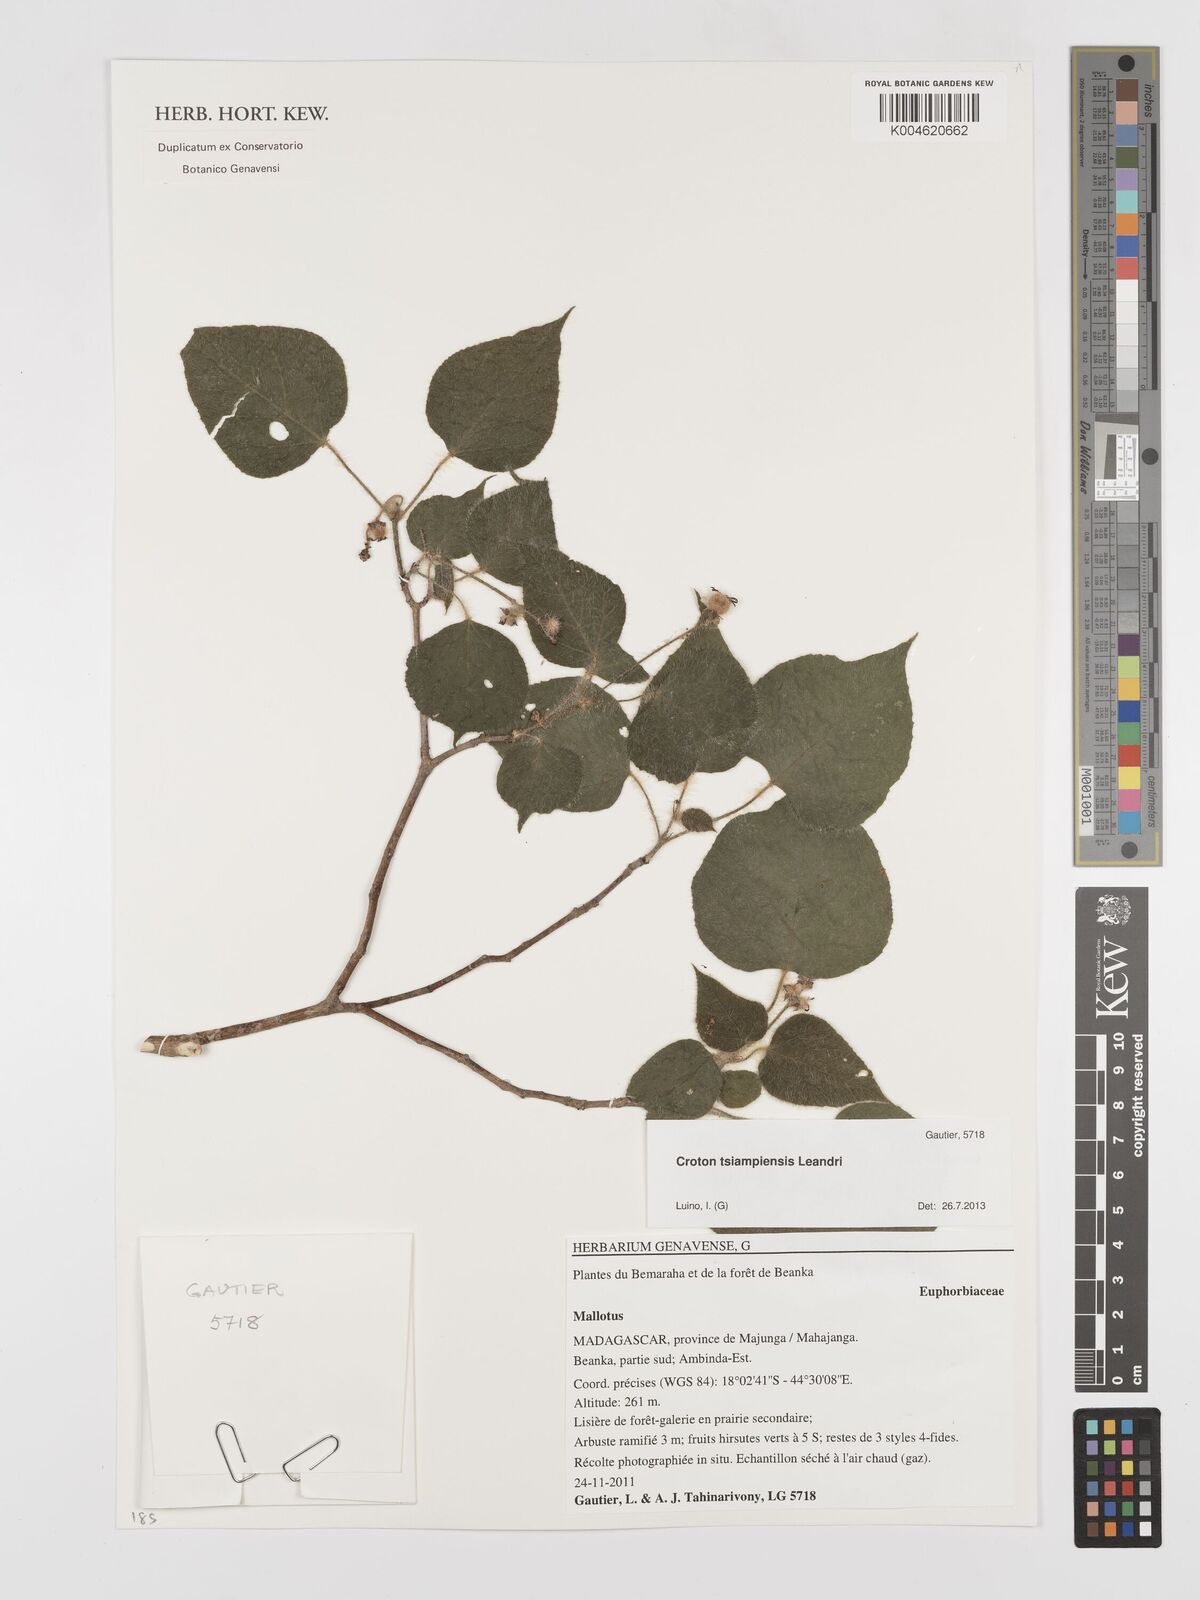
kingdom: Plantae
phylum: Tracheophyta
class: Magnoliopsida
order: Malpighiales
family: Euphorbiaceae
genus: Croton
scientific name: Croton tsiampiensis
